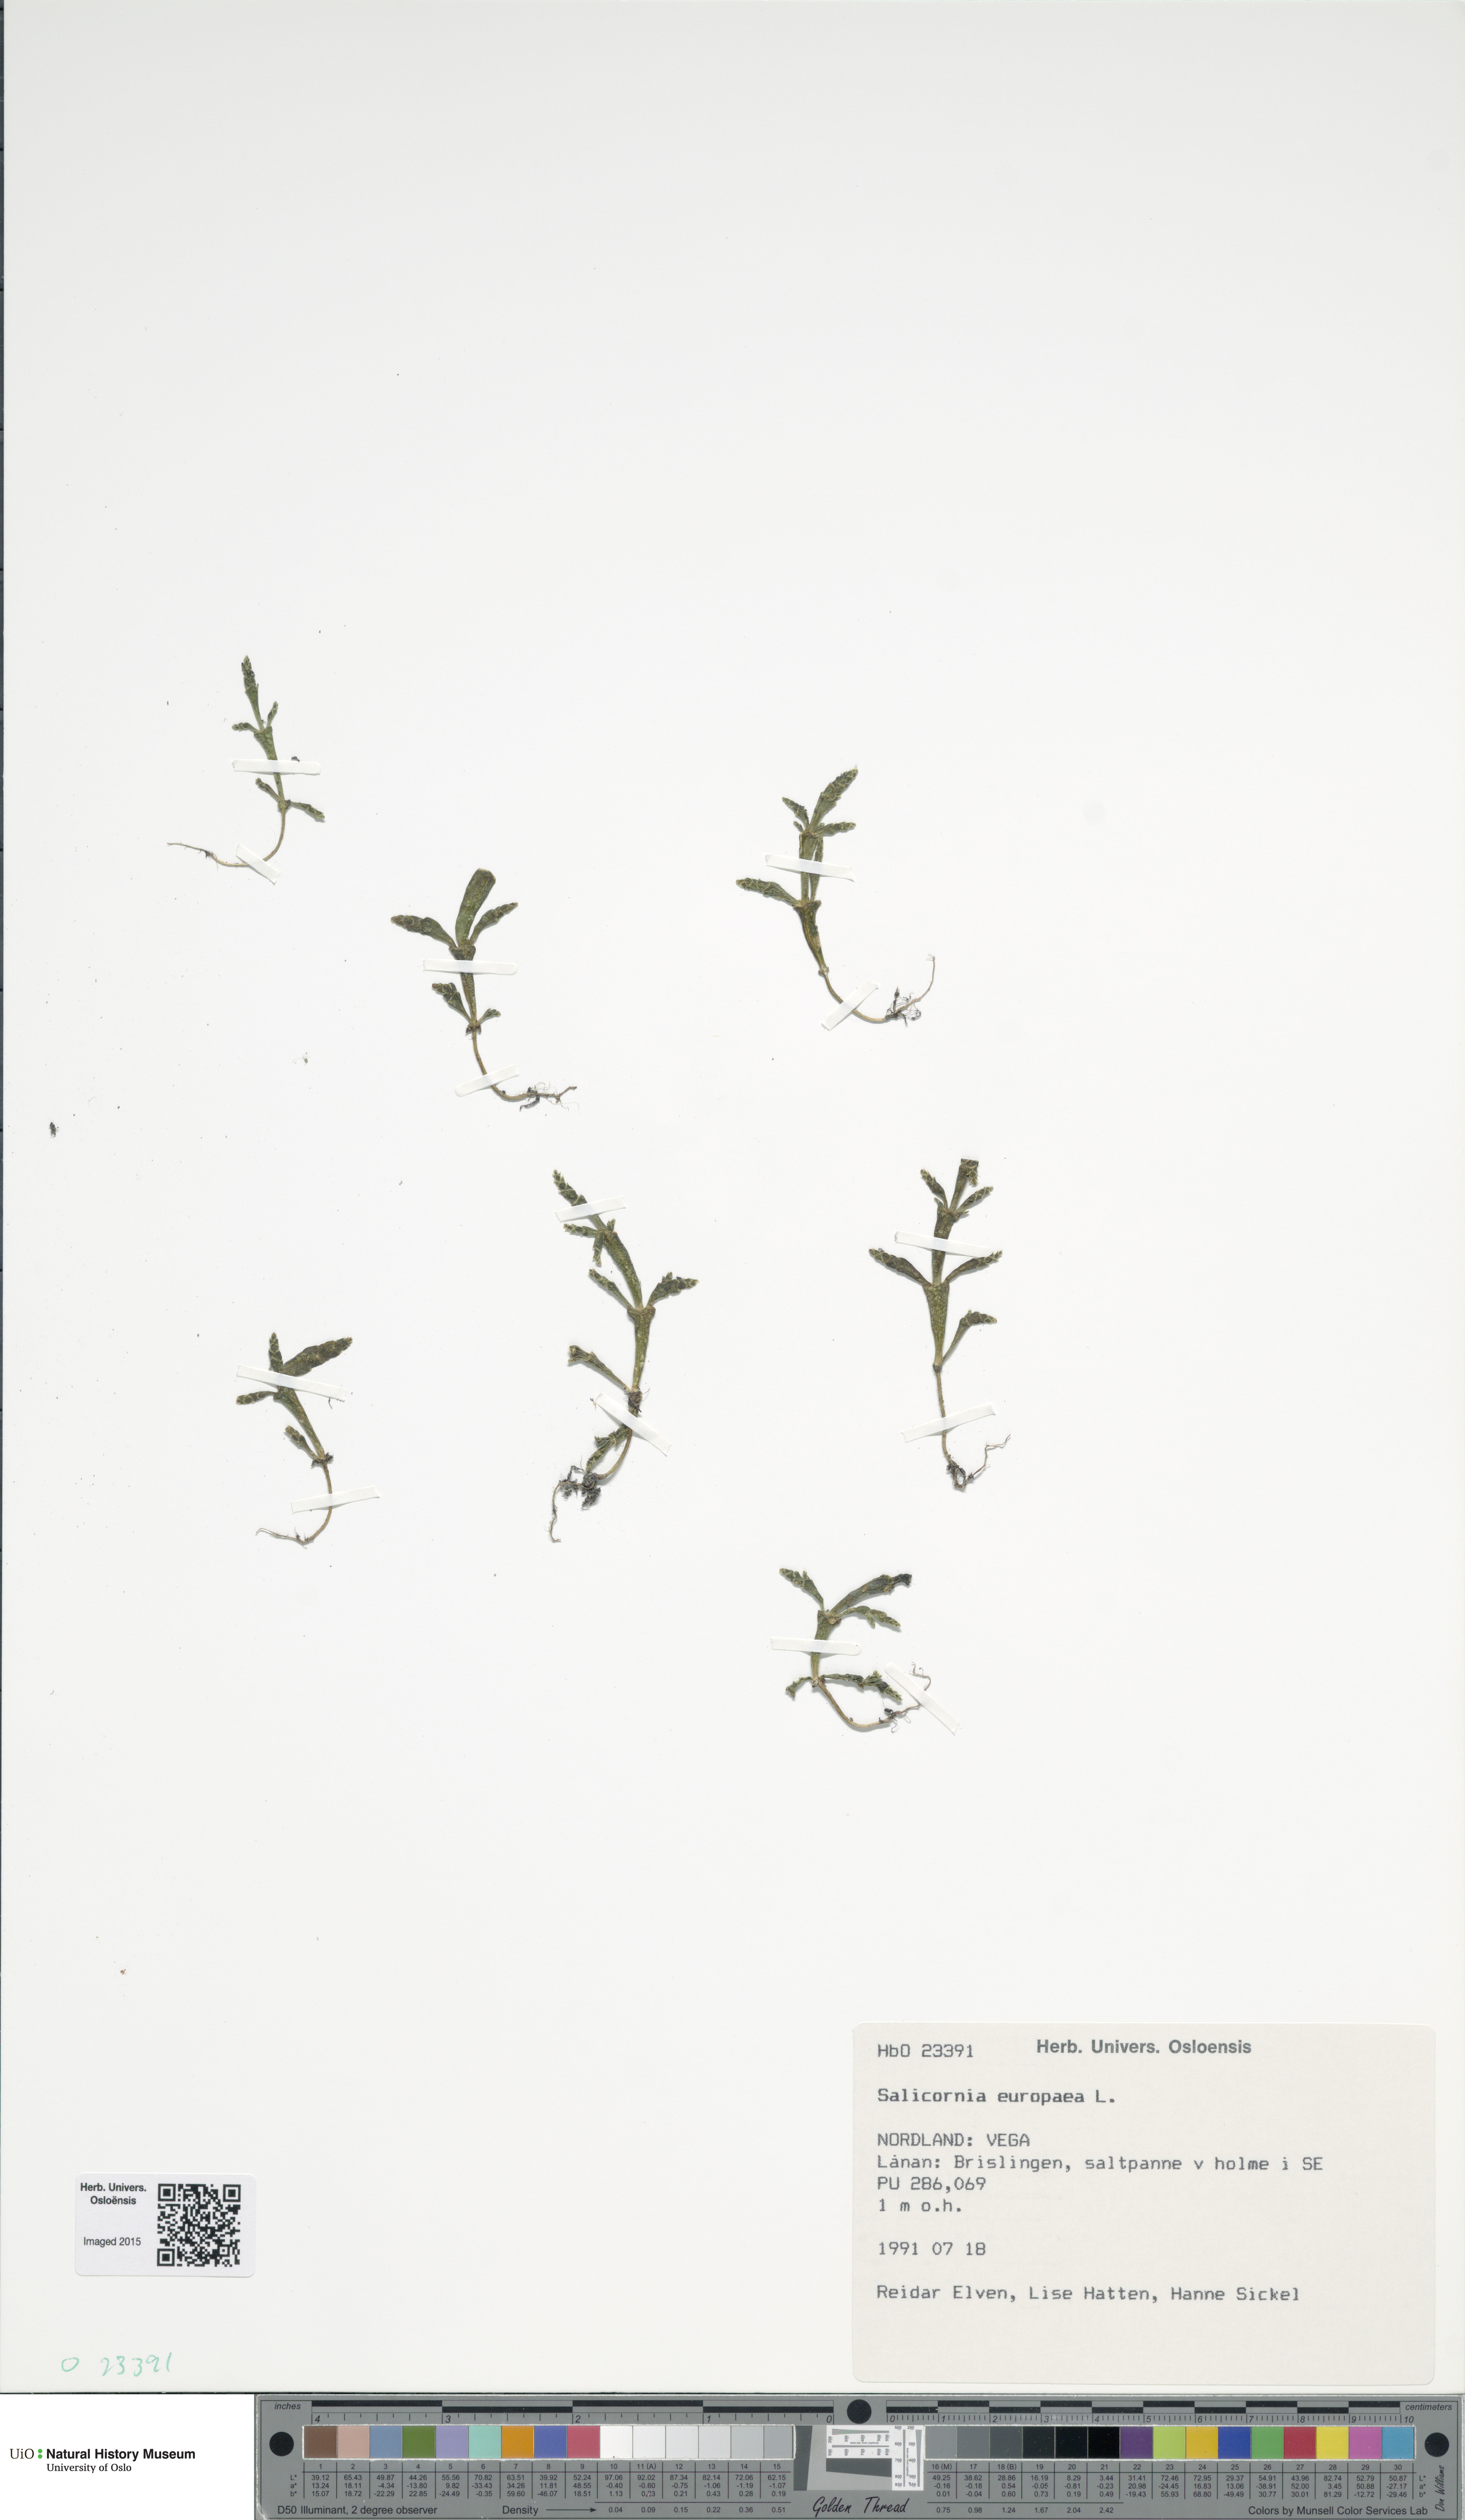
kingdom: Plantae
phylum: Tracheophyta
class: Magnoliopsida
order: Caryophyllales
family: Amaranthaceae
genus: Salicornia
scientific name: Salicornia europaea
